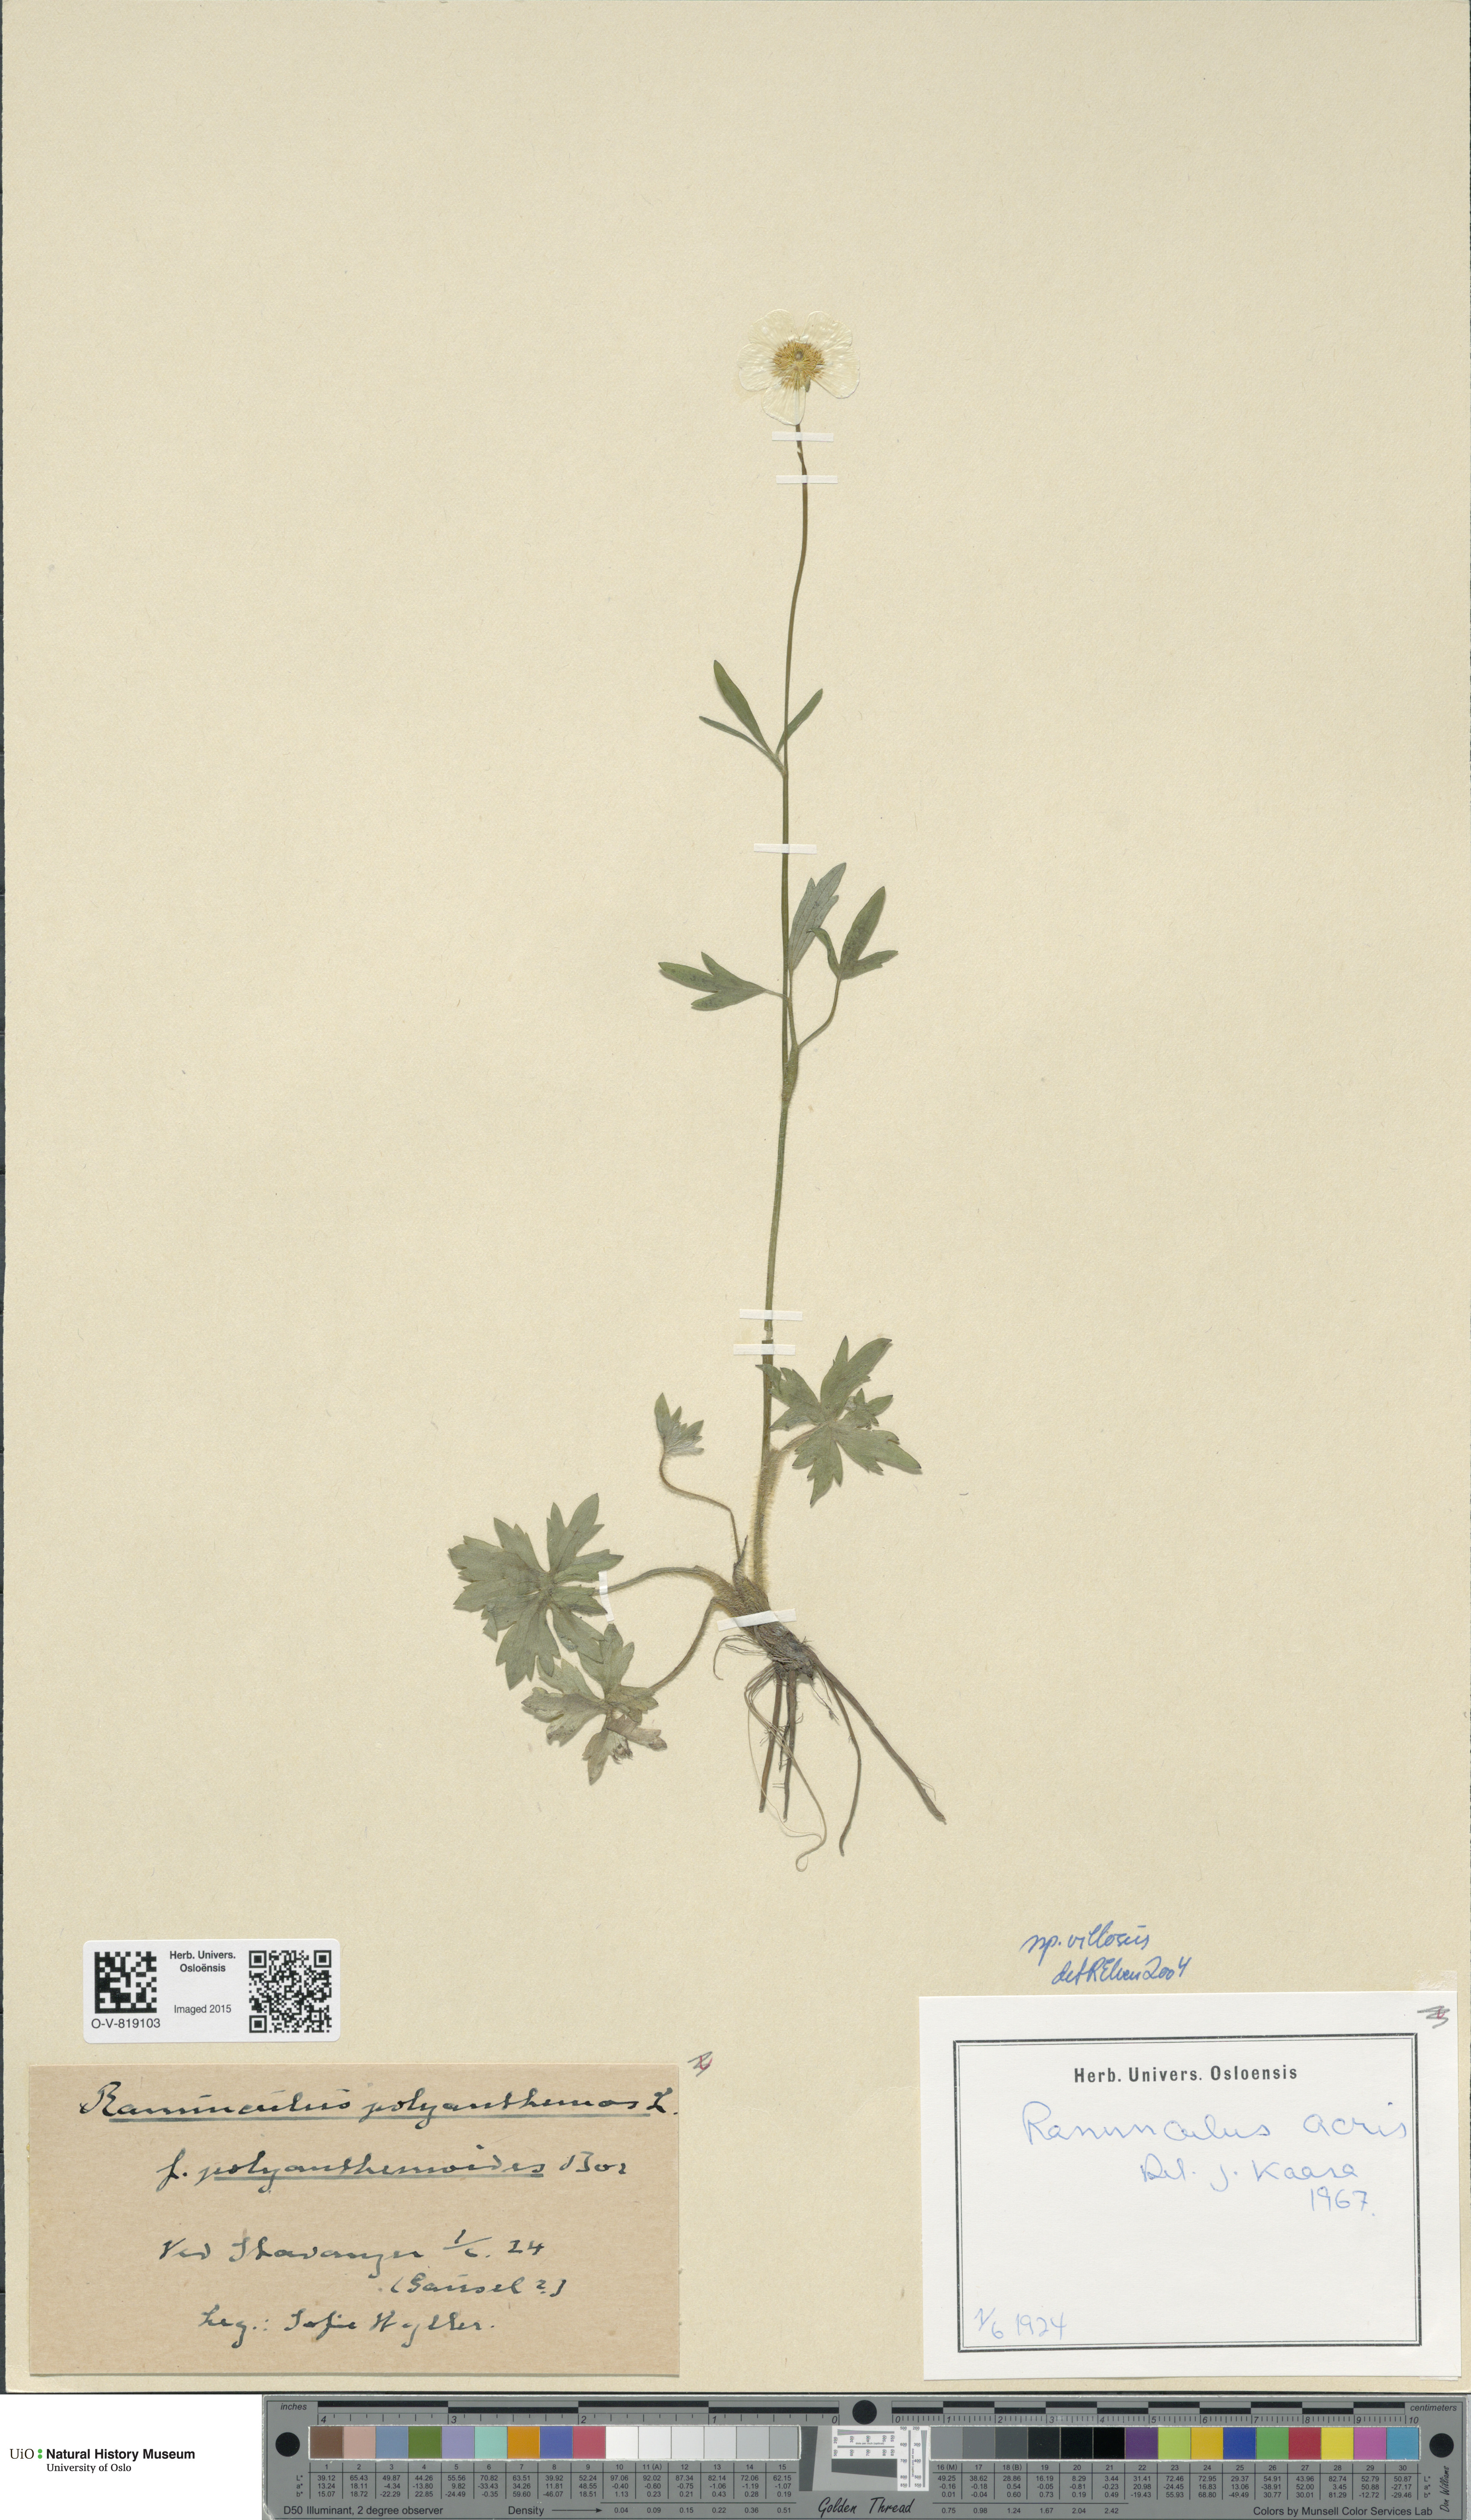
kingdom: Plantae
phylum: Tracheophyta
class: Magnoliopsida
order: Ranunculales
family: Ranunculaceae
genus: Ranunculus
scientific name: Ranunculus propinquus
